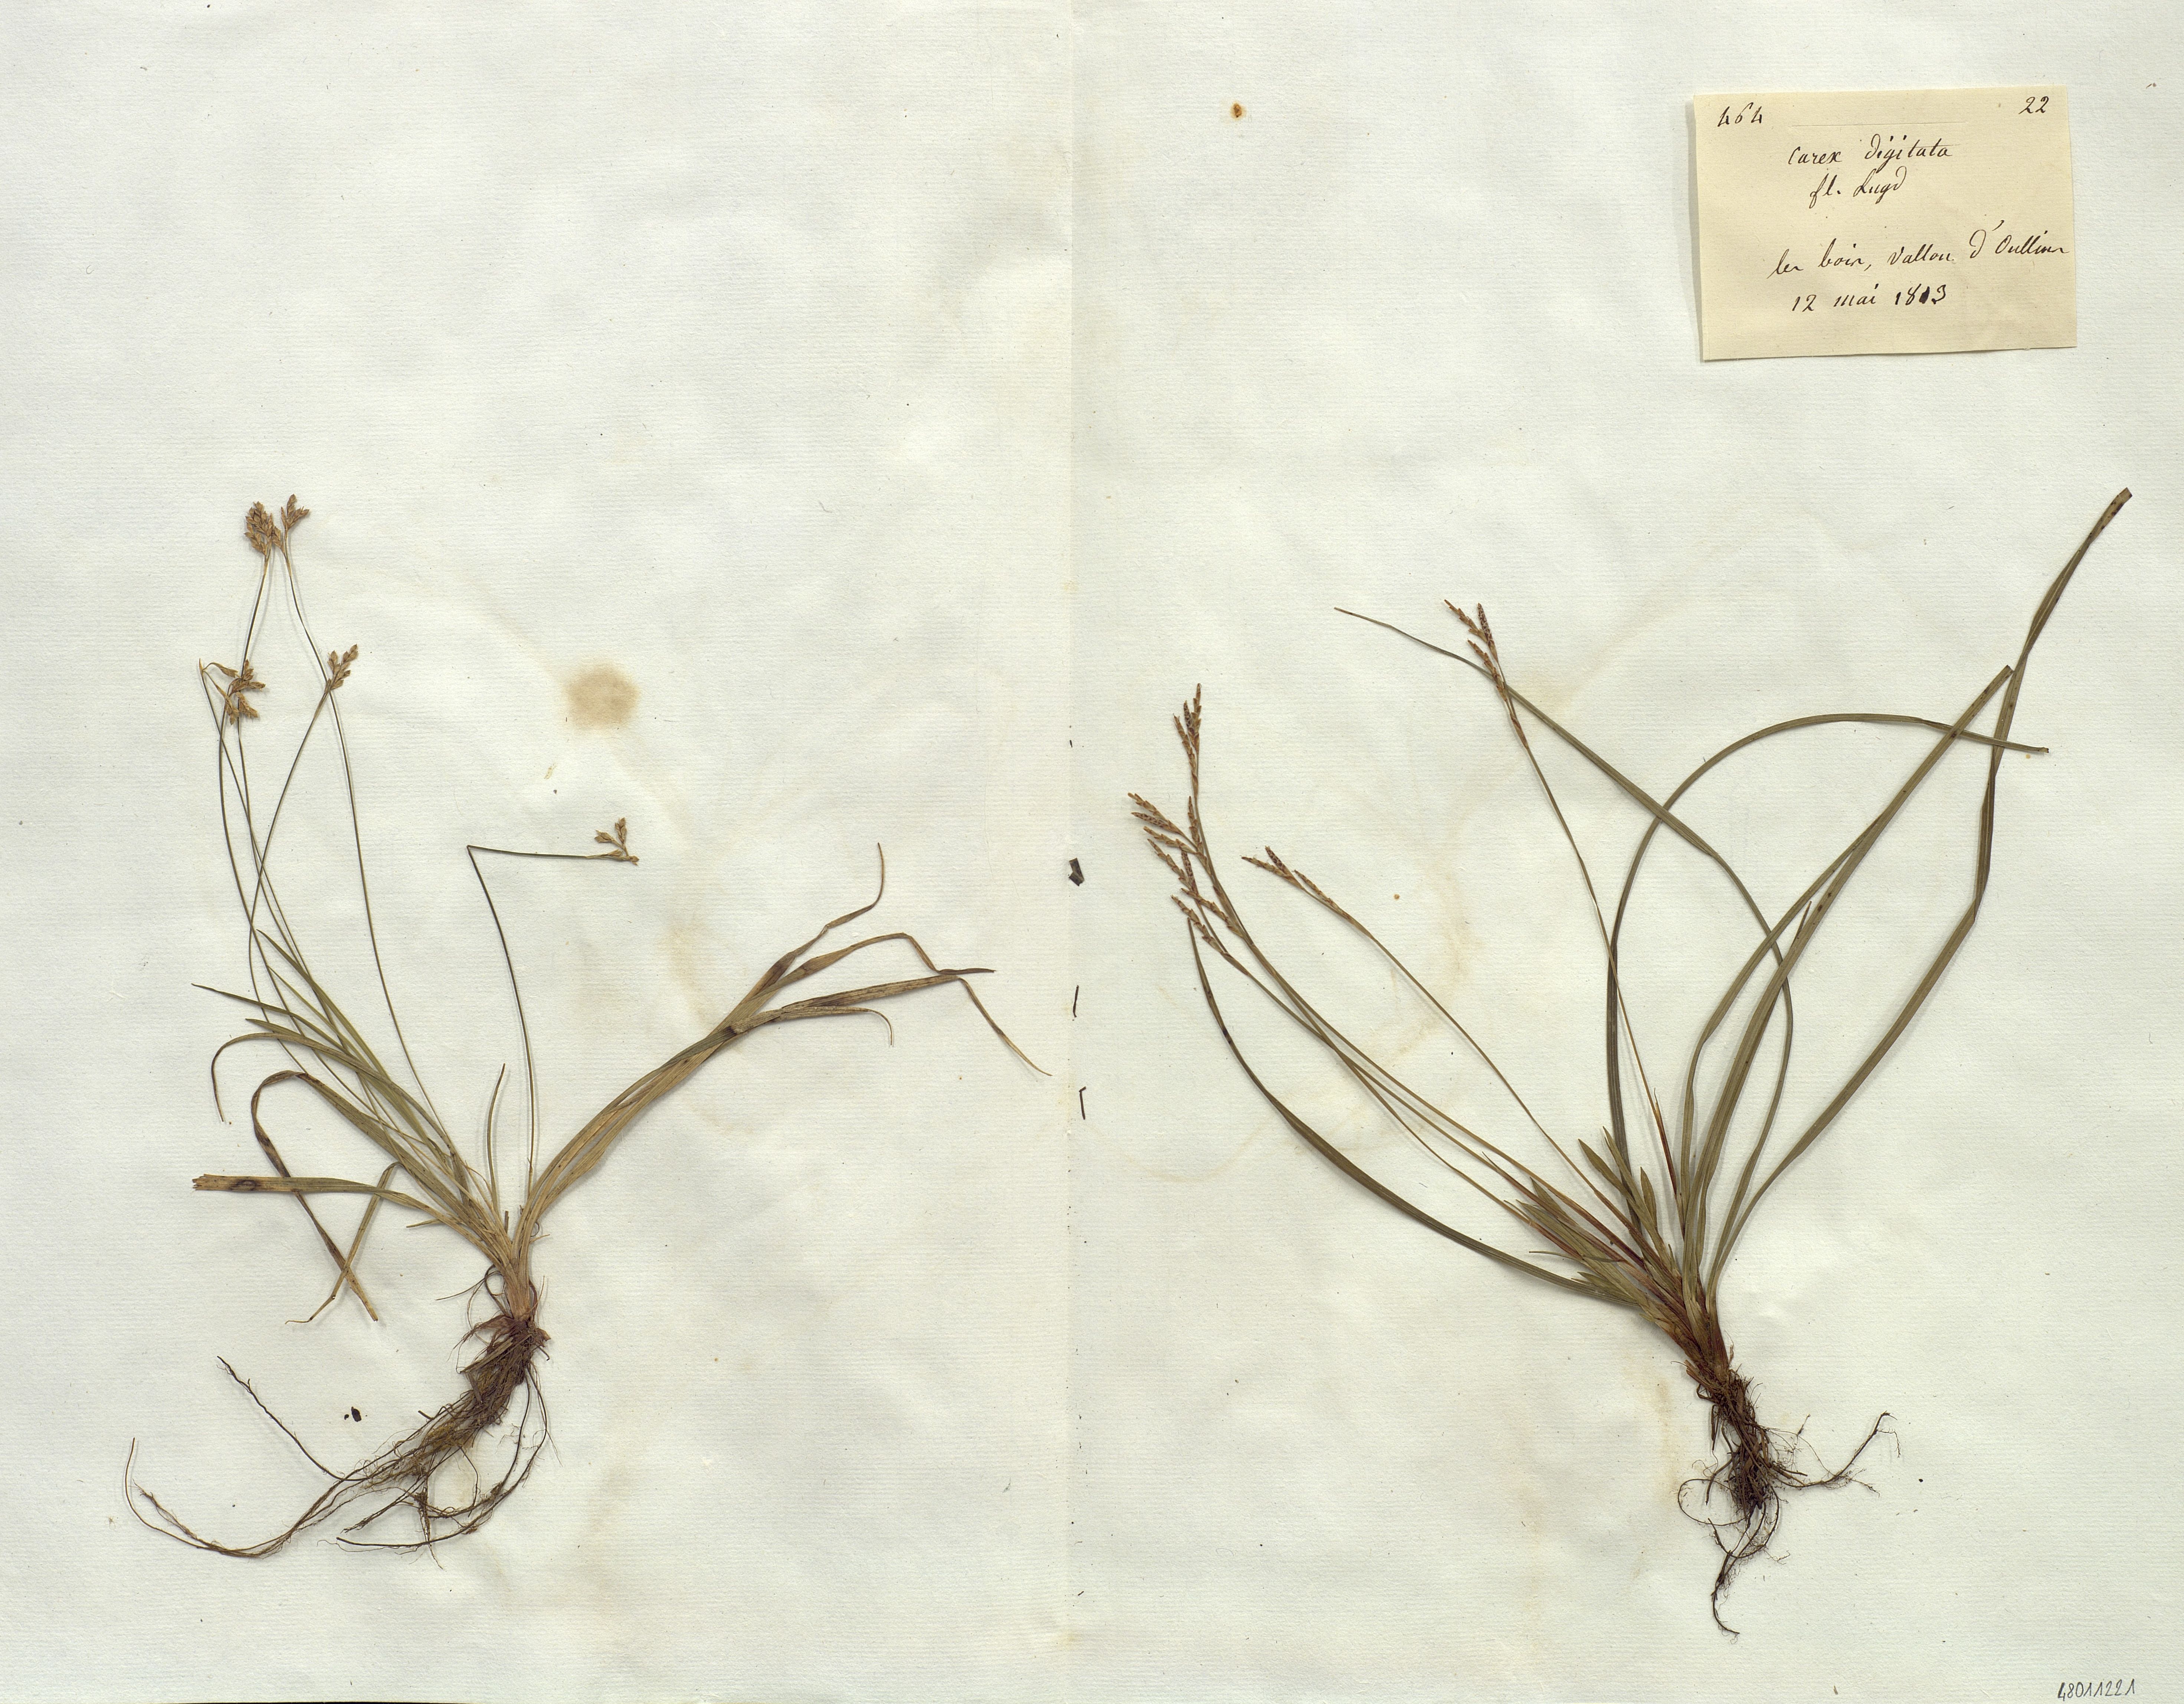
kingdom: Plantae
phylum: Tracheophyta
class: Liliopsida
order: Poales
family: Cyperaceae
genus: Carex
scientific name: Carex digitata
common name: Fingered sedge
